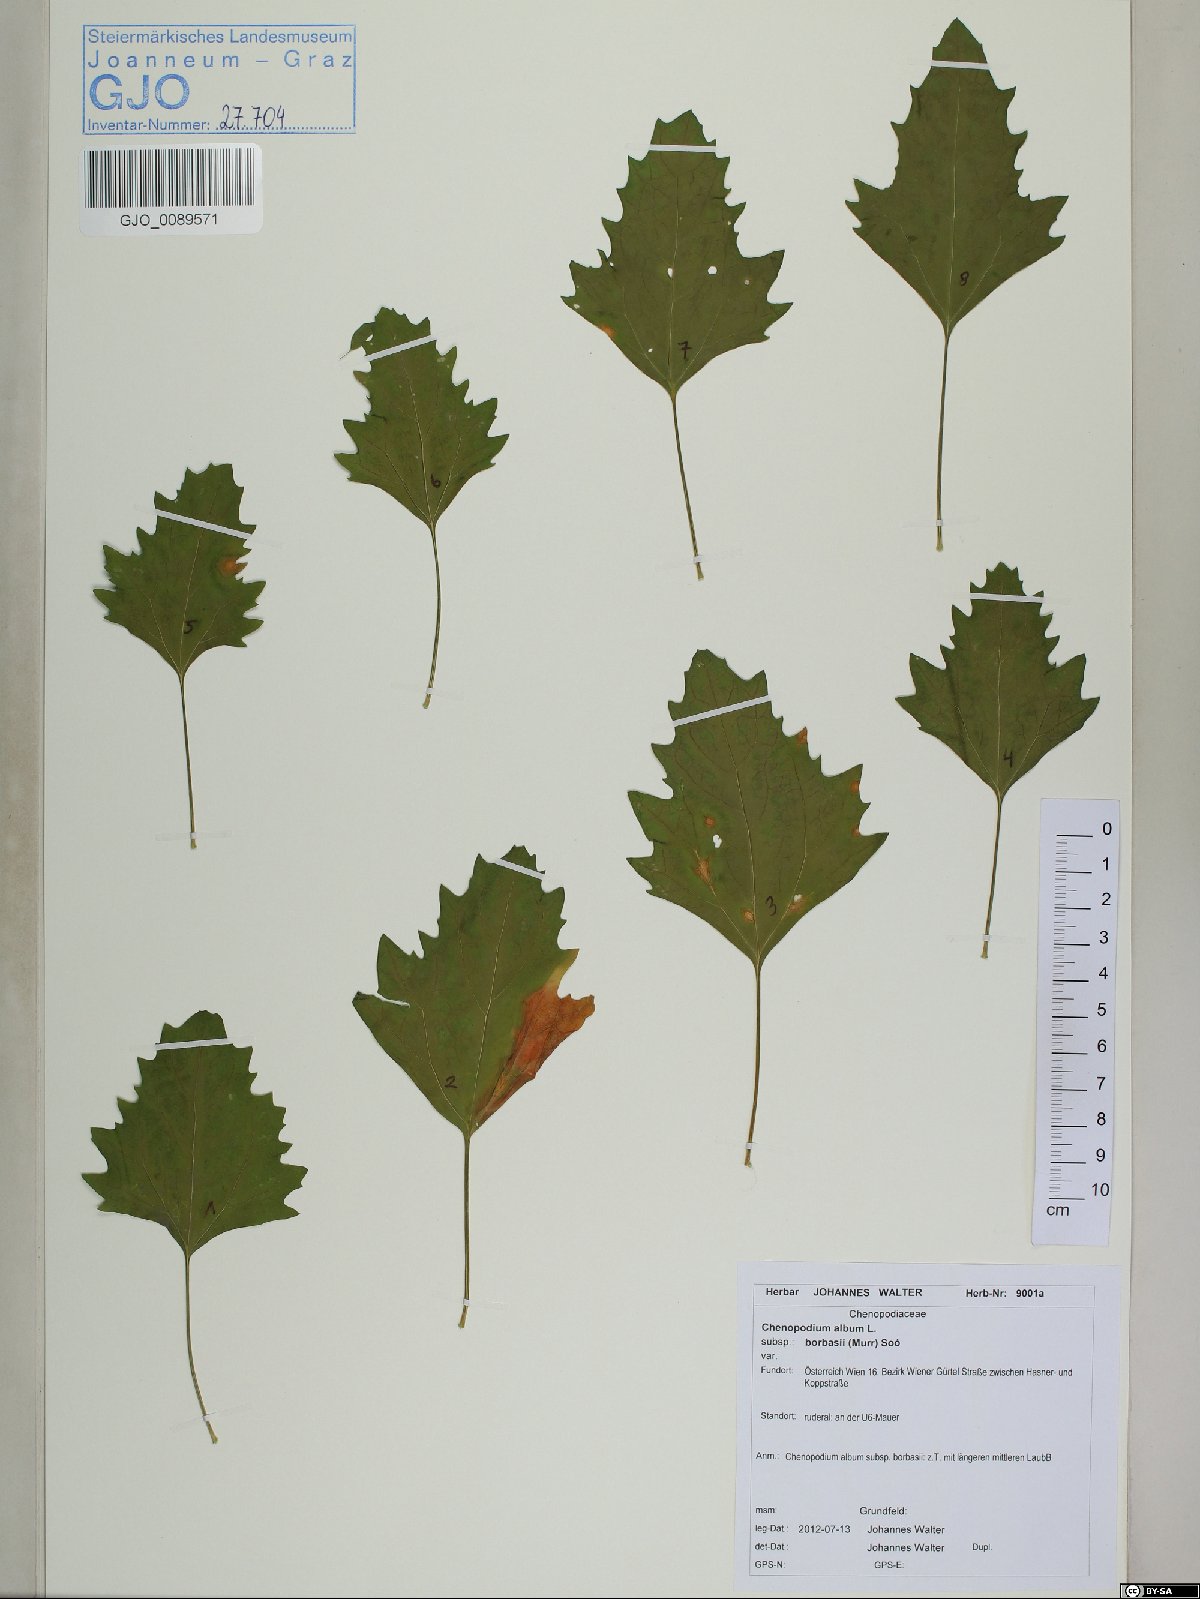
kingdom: Plantae
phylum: Tracheophyta
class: Magnoliopsida
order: Caryophyllales
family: Amaranthaceae
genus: Chenopodium
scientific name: Chenopodium borbasii
